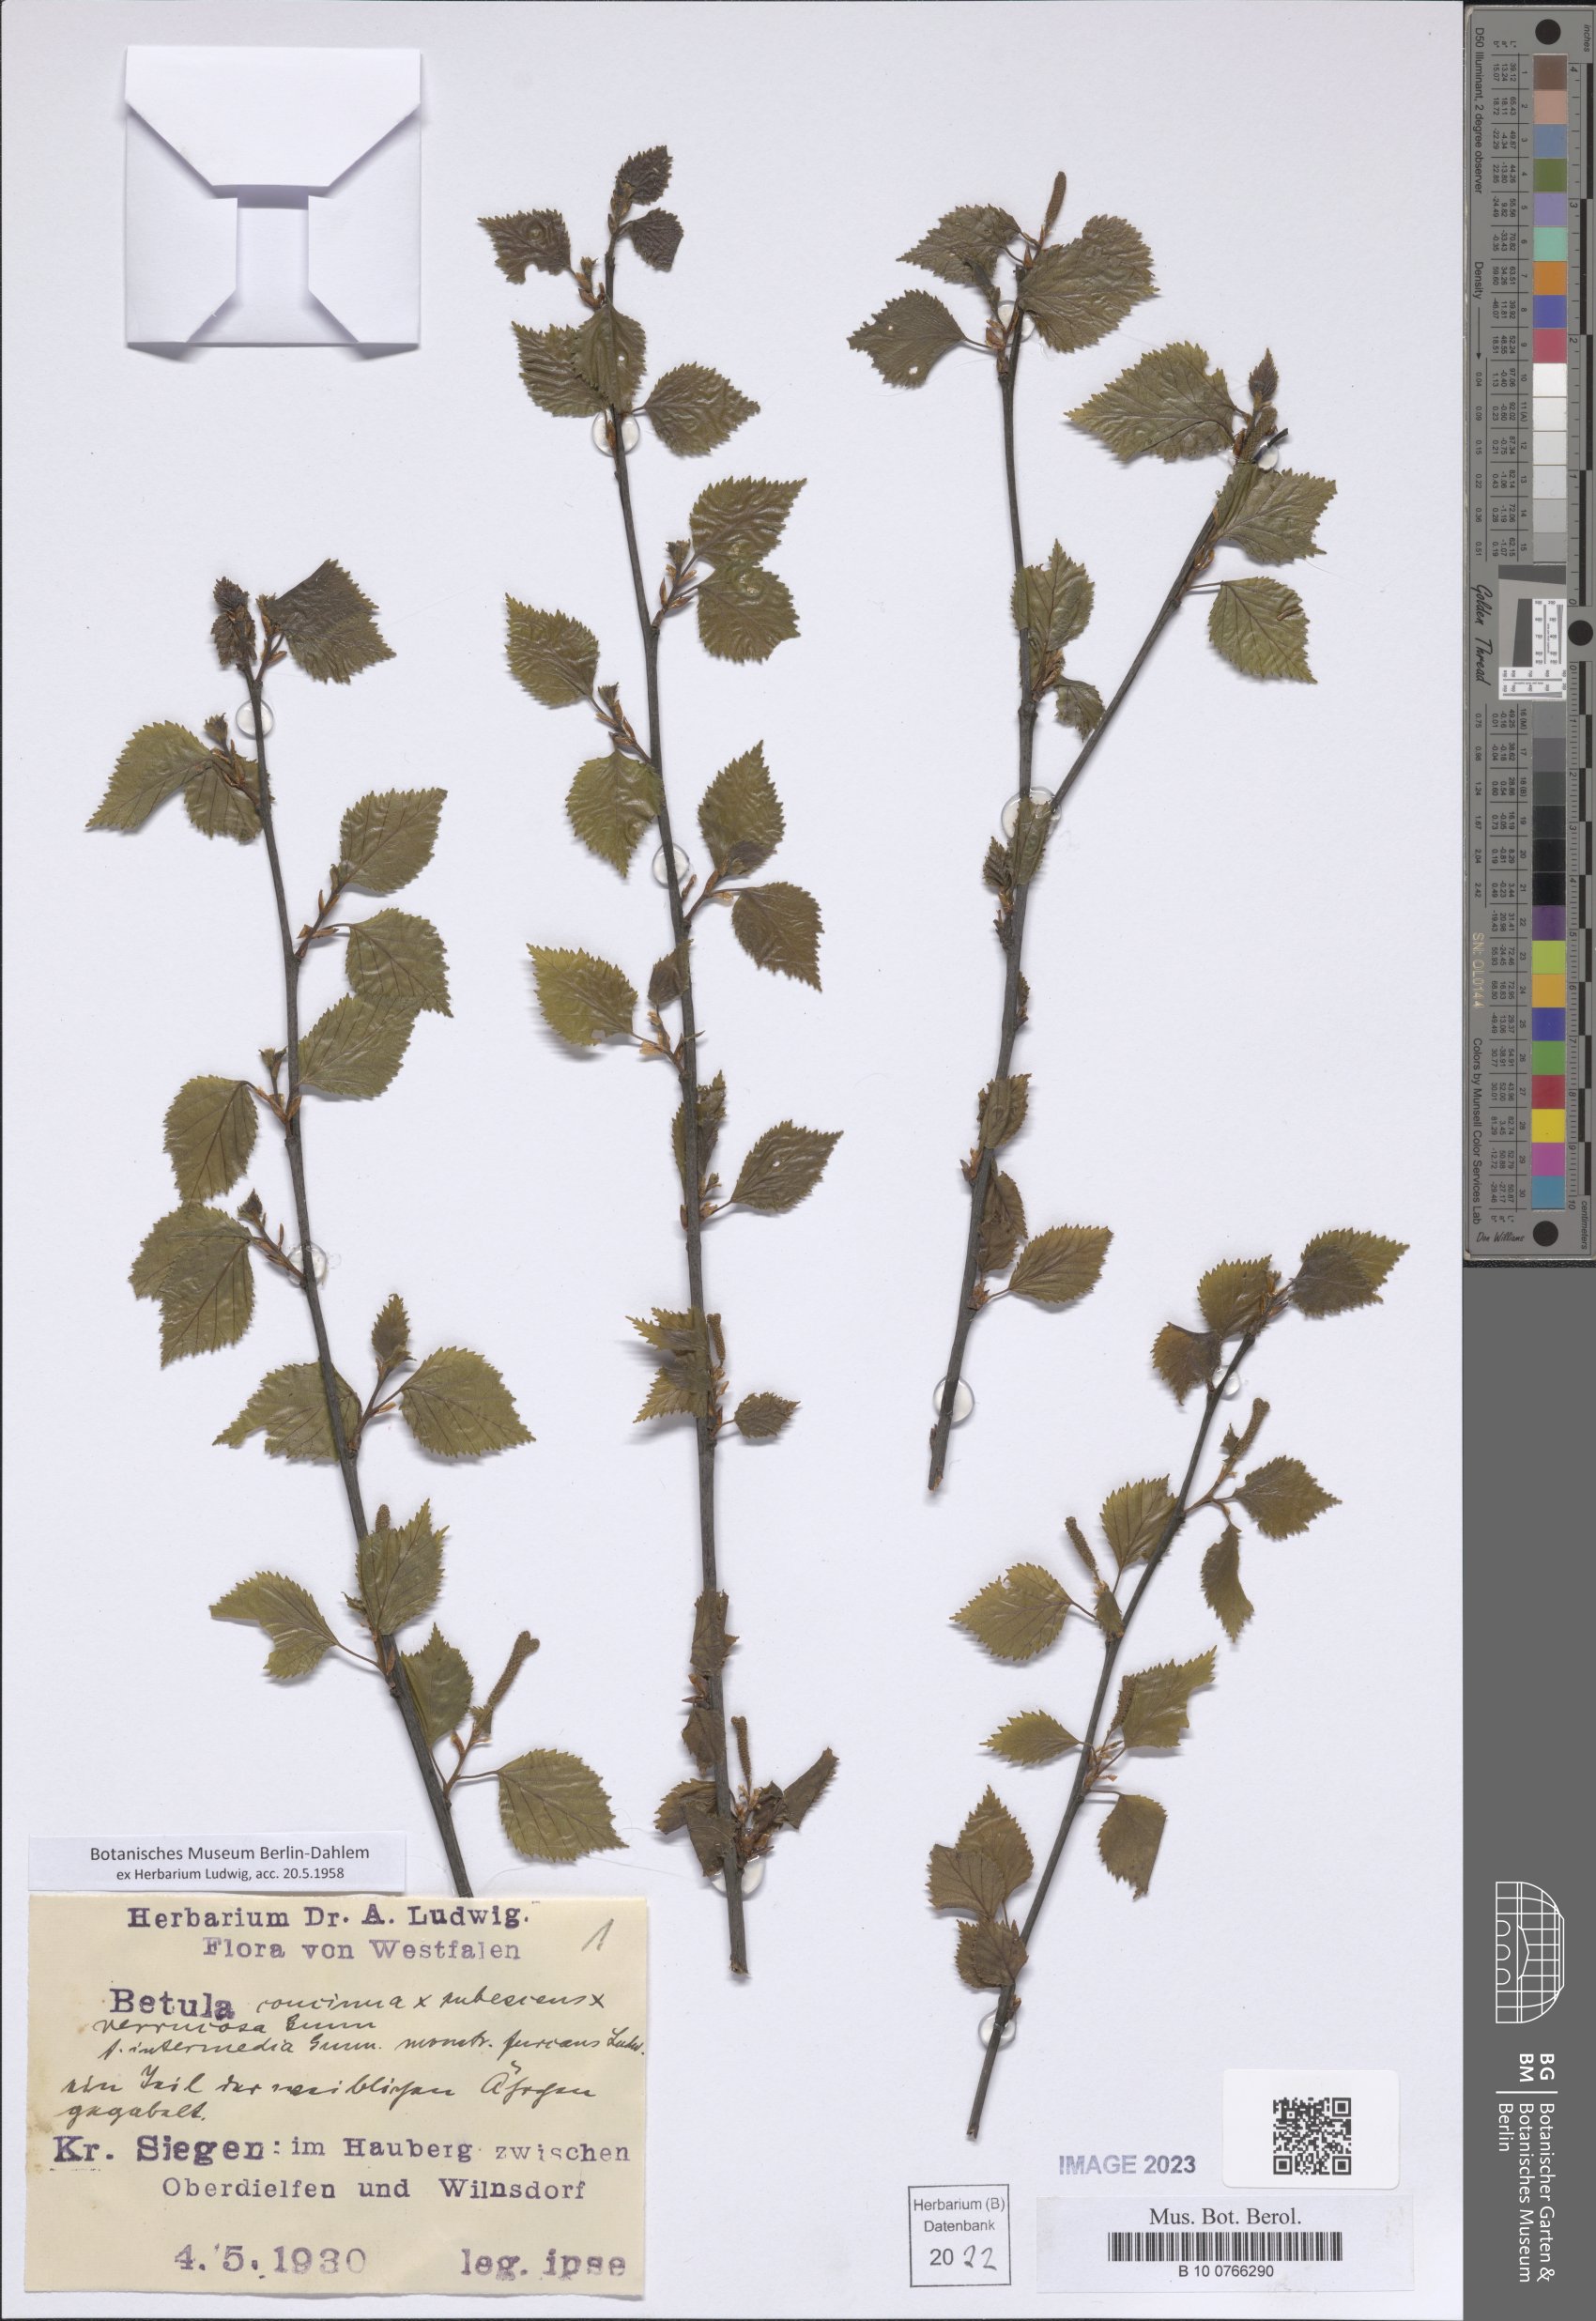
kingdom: Plantae
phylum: Tracheophyta
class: Magnoliopsida
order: Fagales
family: Betulaceae
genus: Betula
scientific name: Betula
